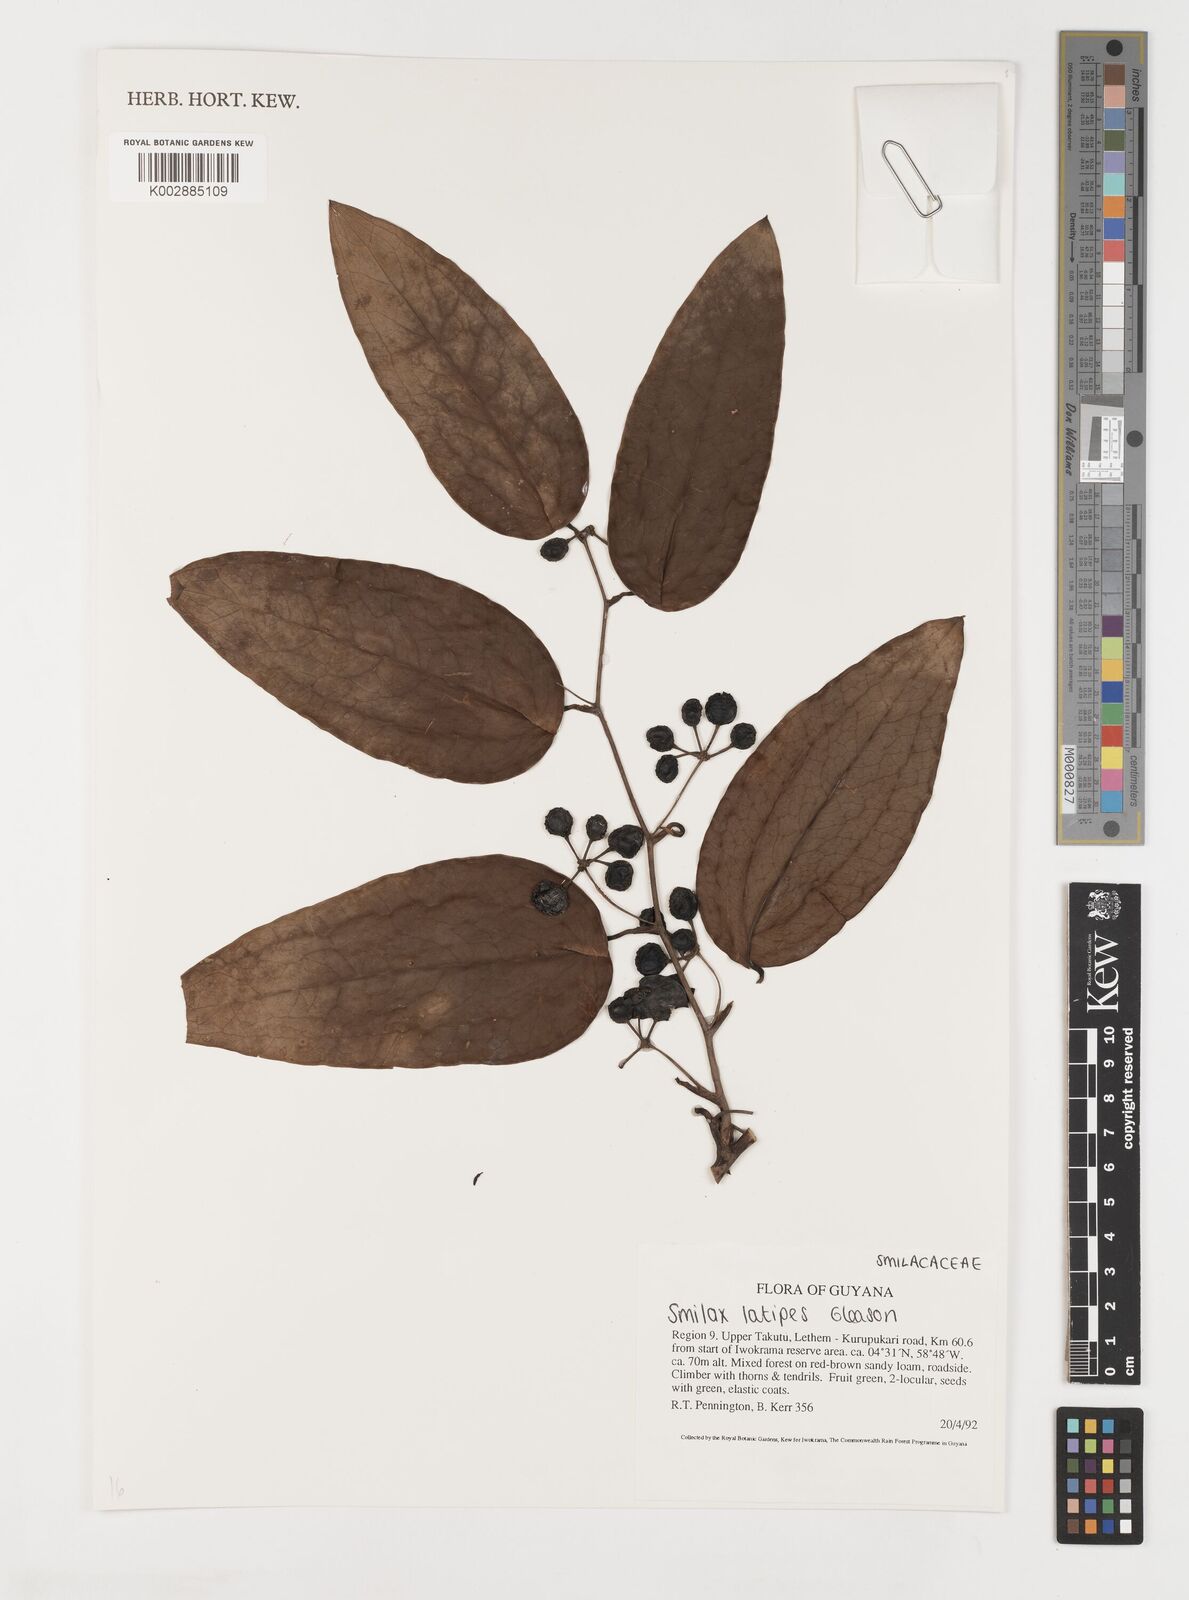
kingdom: Plantae
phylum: Tracheophyta
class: Liliopsida
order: Liliales
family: Smilacaceae
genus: Smilax
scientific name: Smilax schomburgkiana
